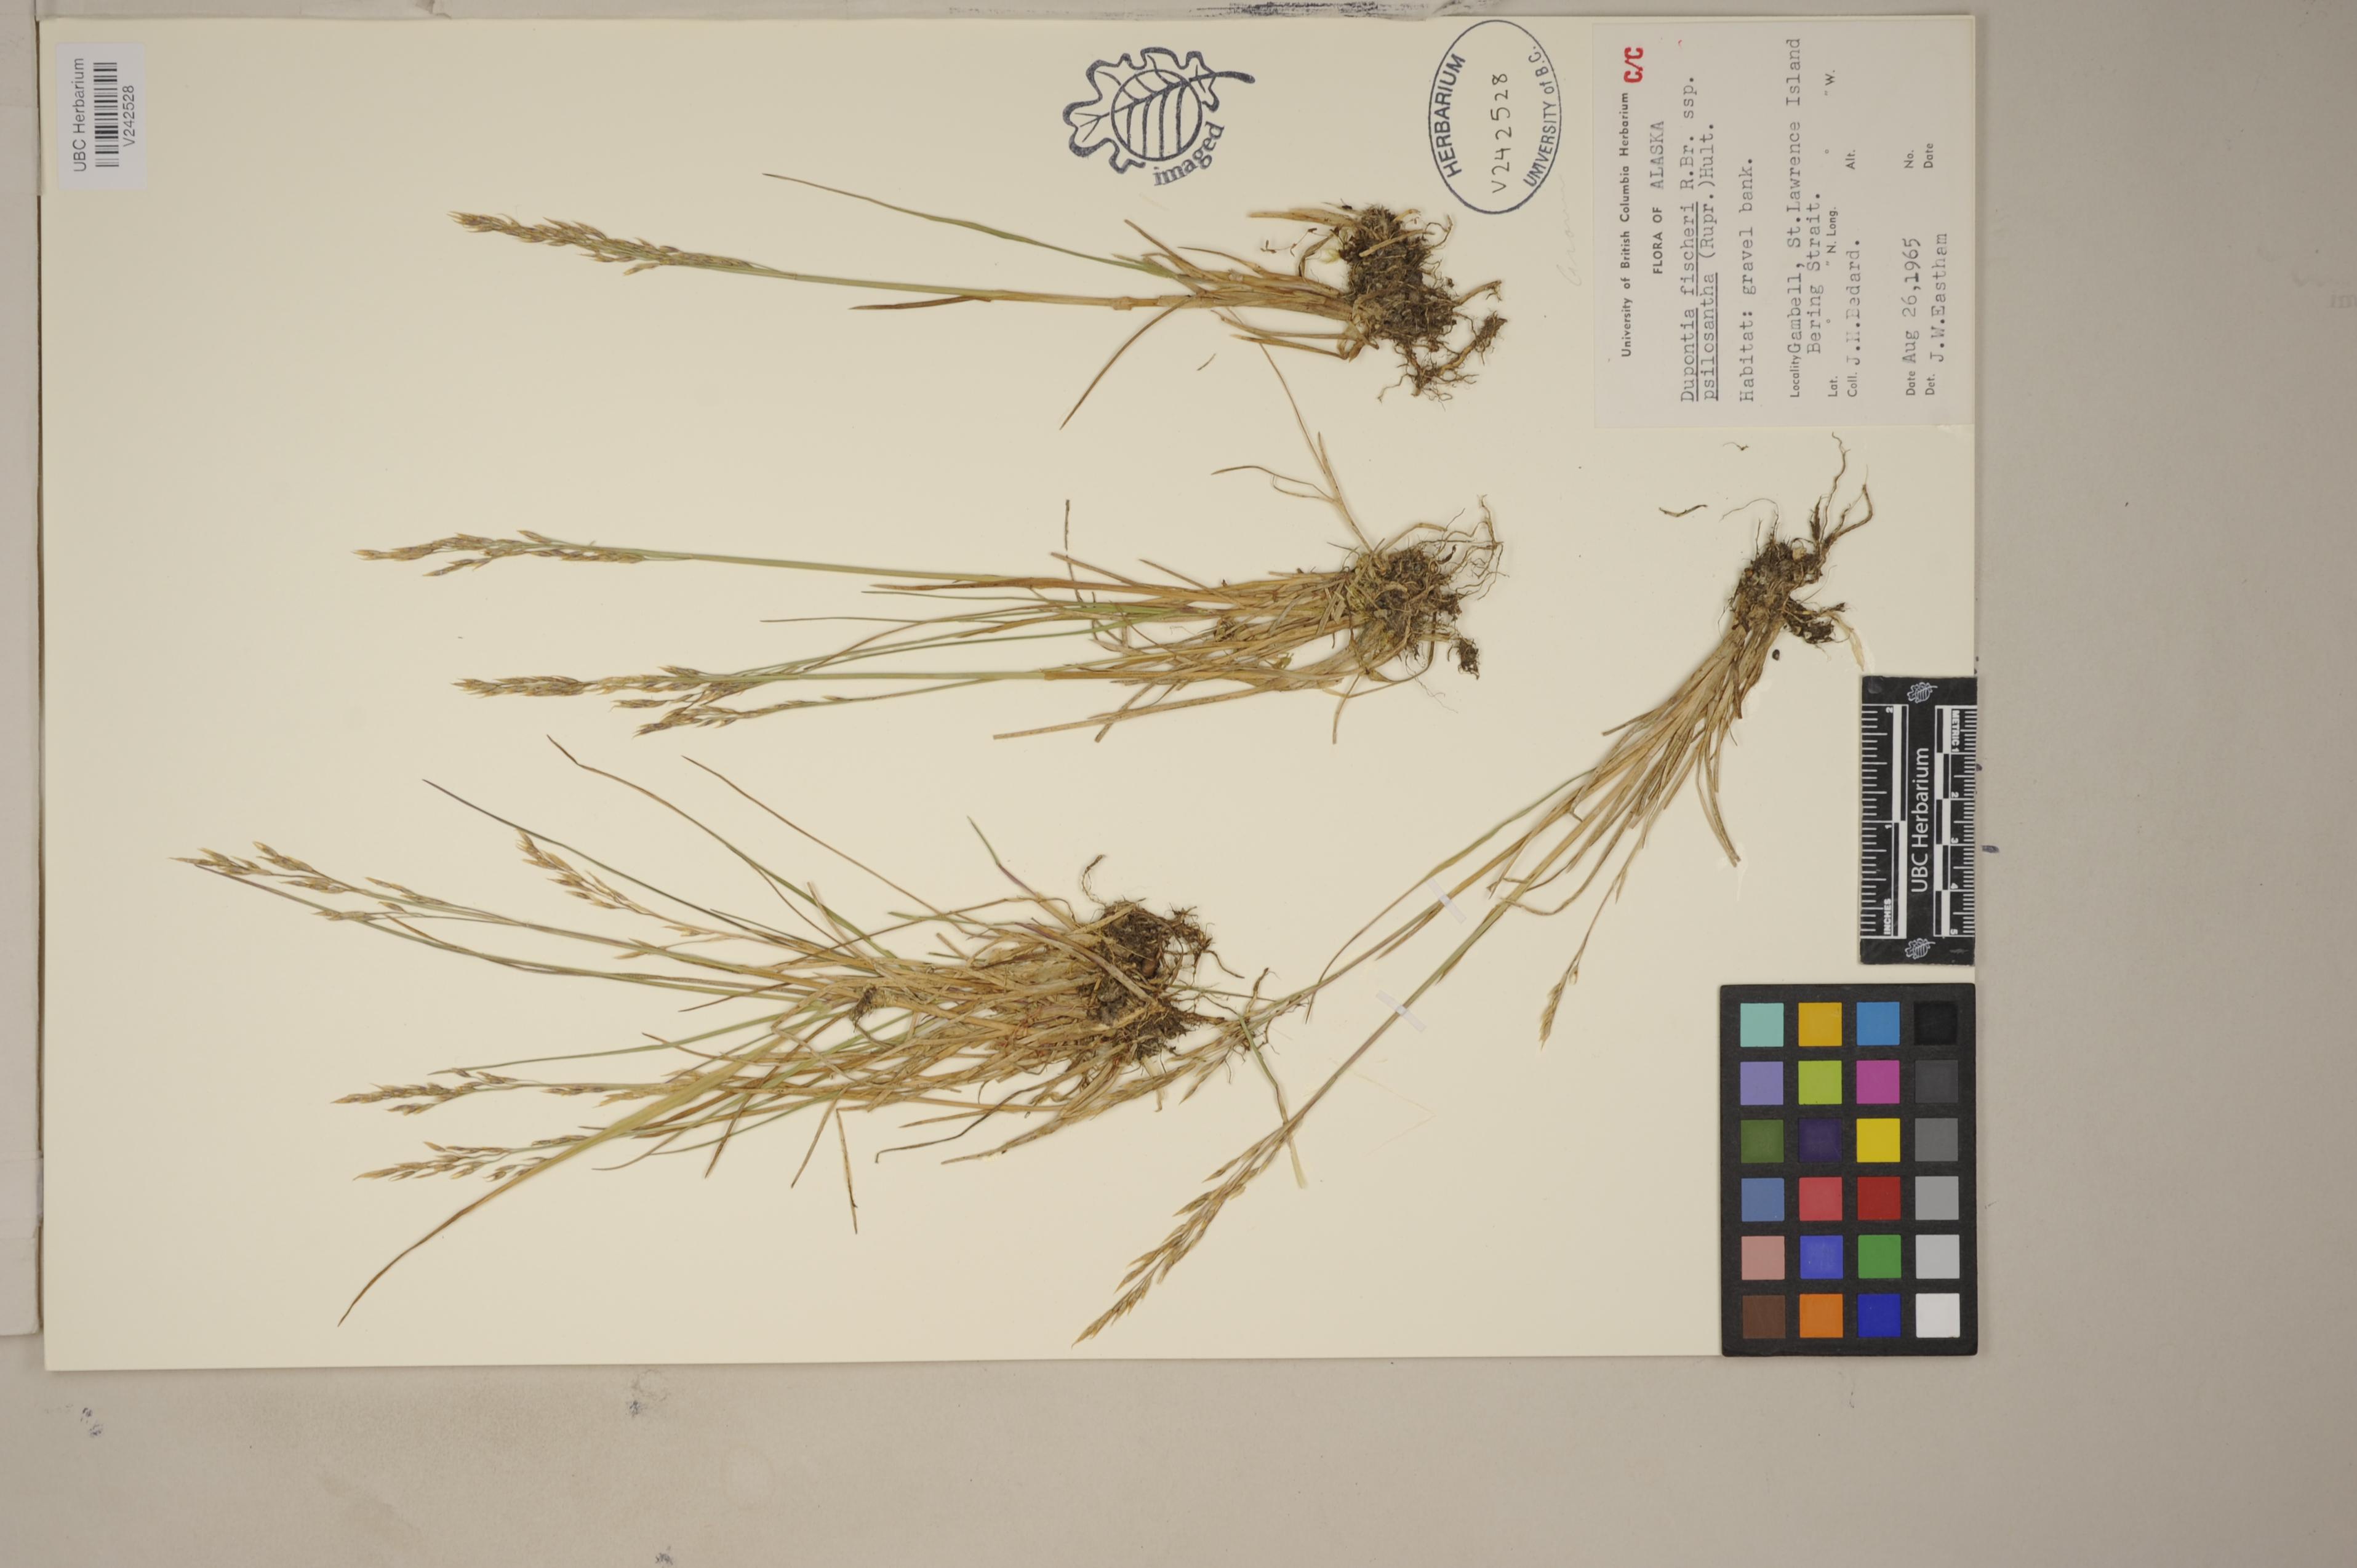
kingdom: Plantae
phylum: Tracheophyta
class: Liliopsida
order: Poales
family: Poaceae
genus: Dupontia
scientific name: Dupontia fisheri
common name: Tundra grass
